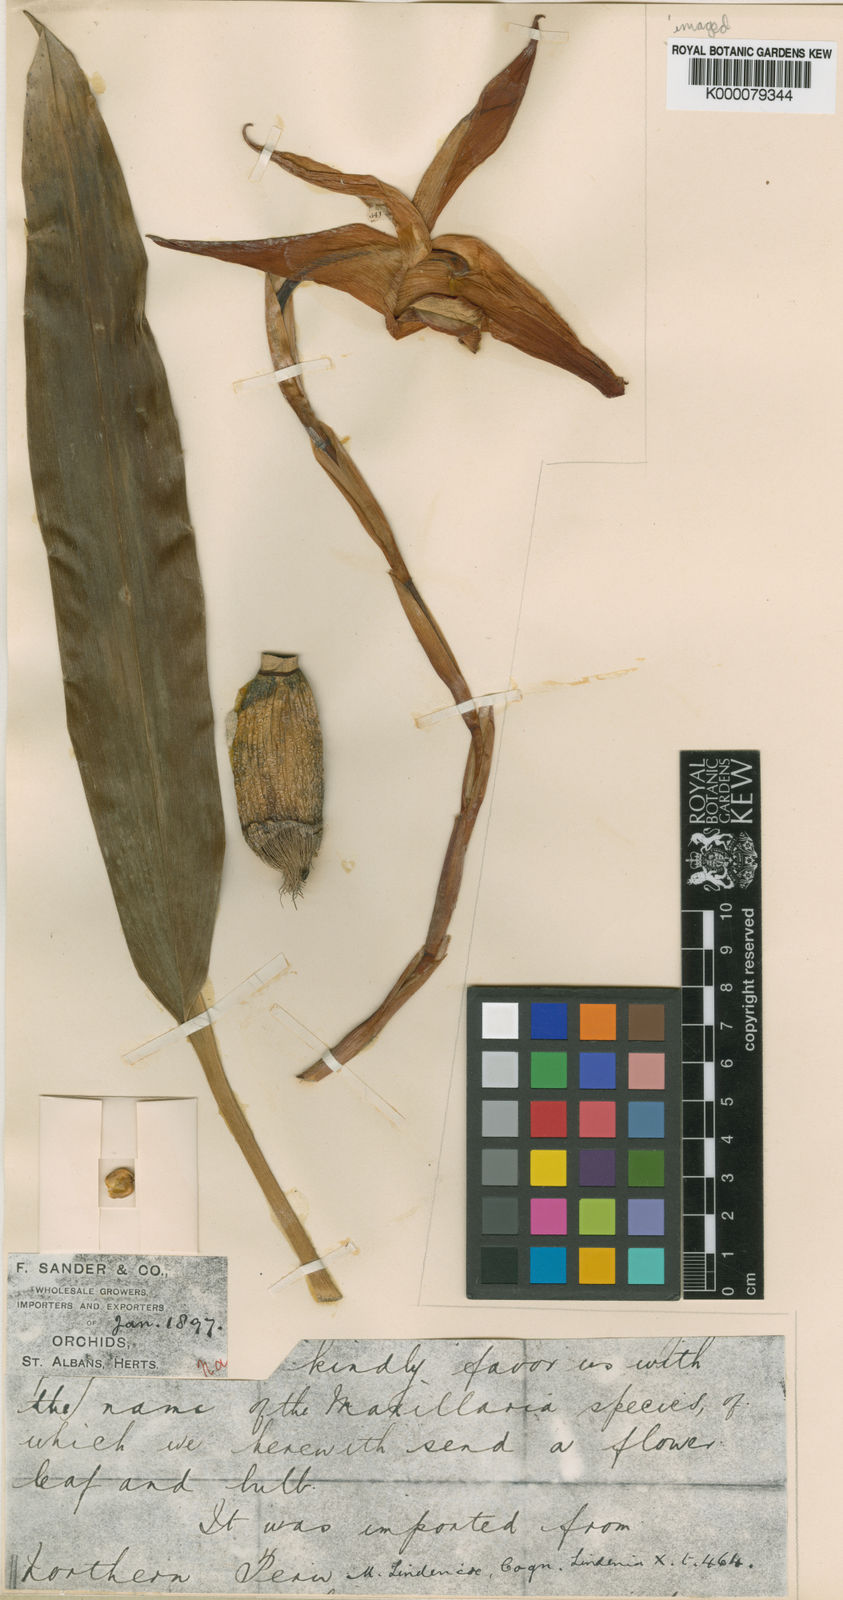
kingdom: Plantae
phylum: Tracheophyta
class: Liliopsida
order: Asparagales
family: Orchidaceae
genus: Maxillaria
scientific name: Maxillaria lindeniae
